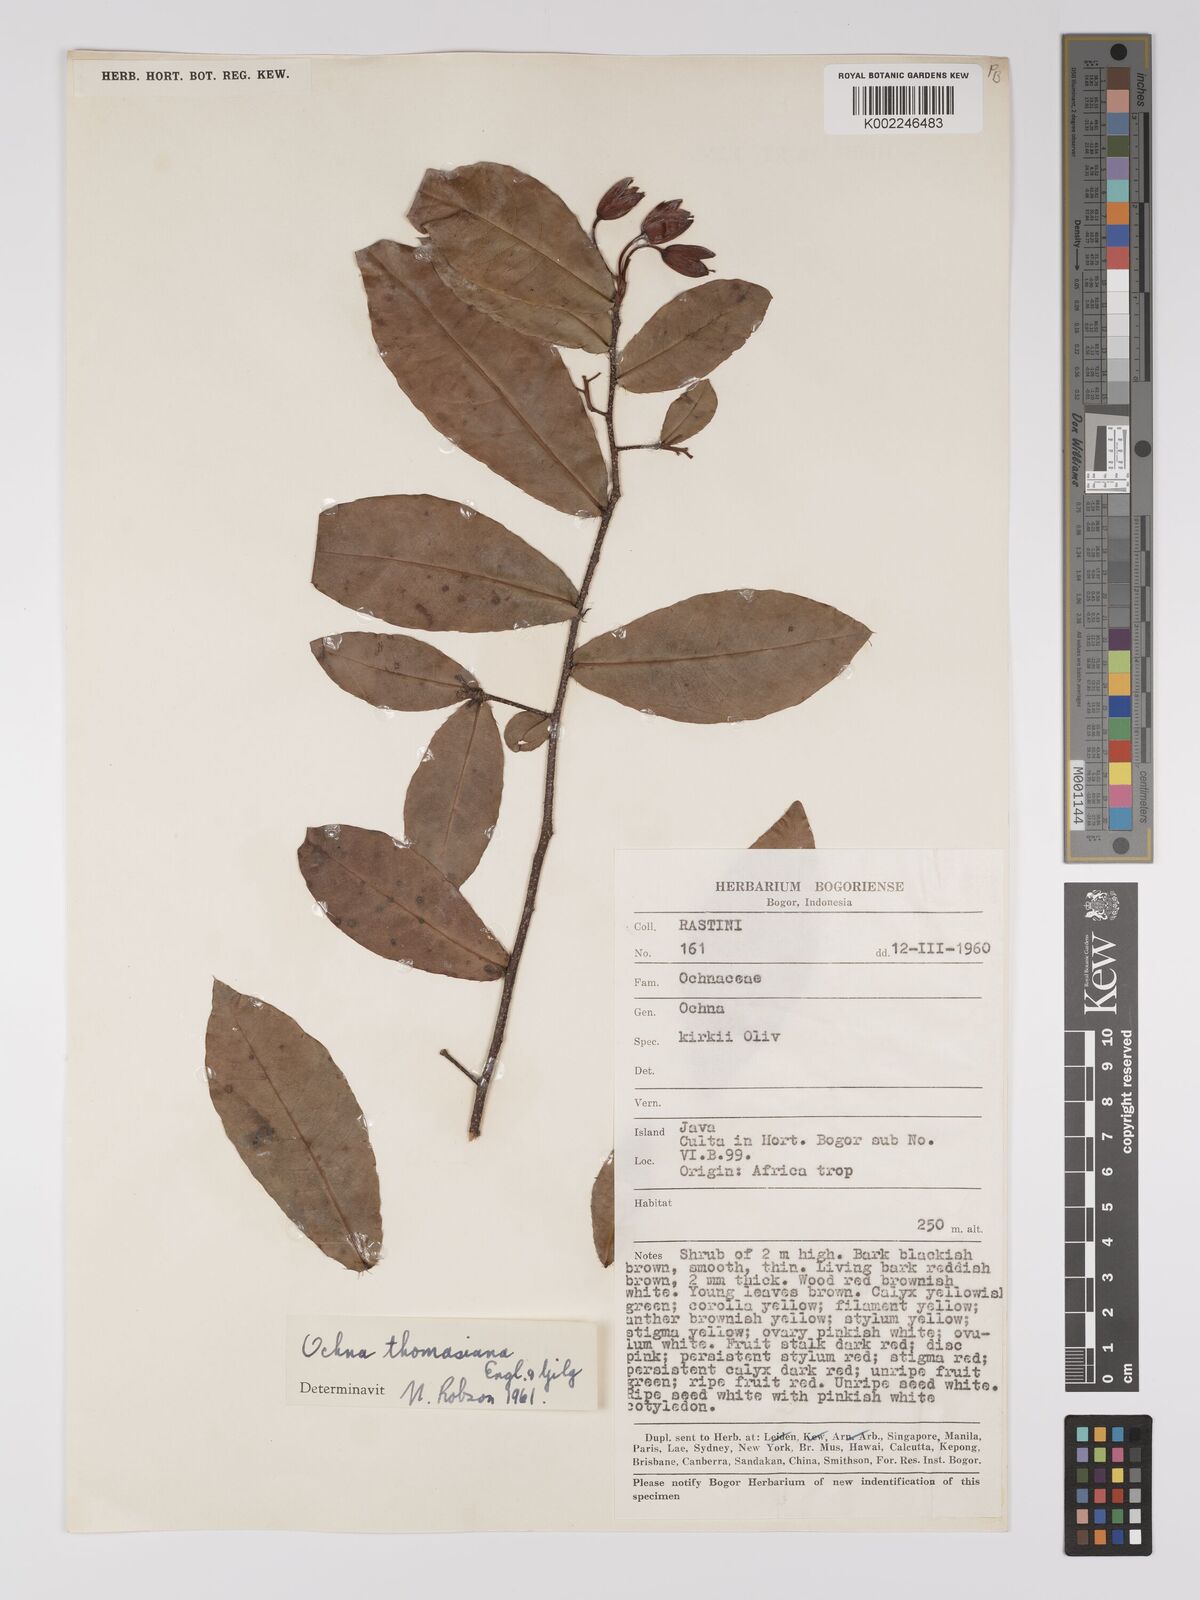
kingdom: Plantae
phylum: Tracheophyta
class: Magnoliopsida
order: Malpighiales
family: Ochnaceae
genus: Ochna
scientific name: Ochna thomasiana
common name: Thomas' bird's-eye bush
